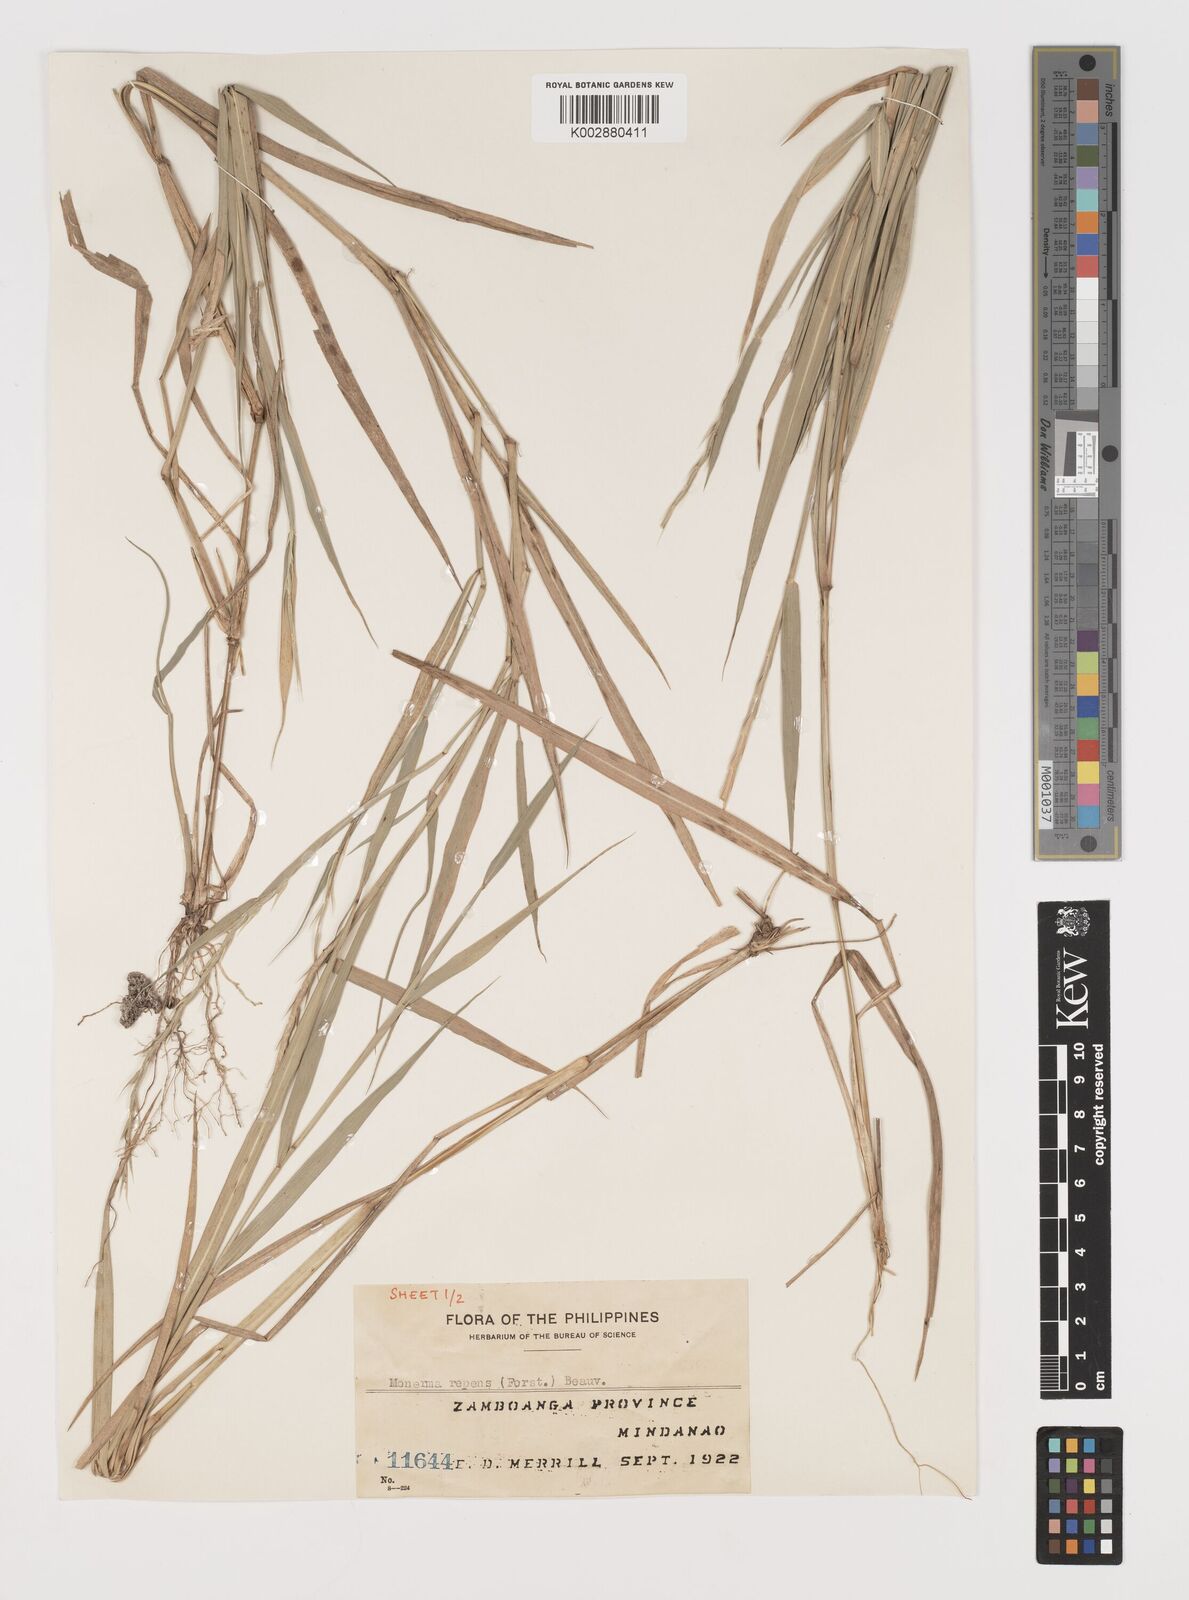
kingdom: Plantae
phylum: Tracheophyta
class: Liliopsida
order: Poales
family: Poaceae
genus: Lepturus
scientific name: Lepturus repens
